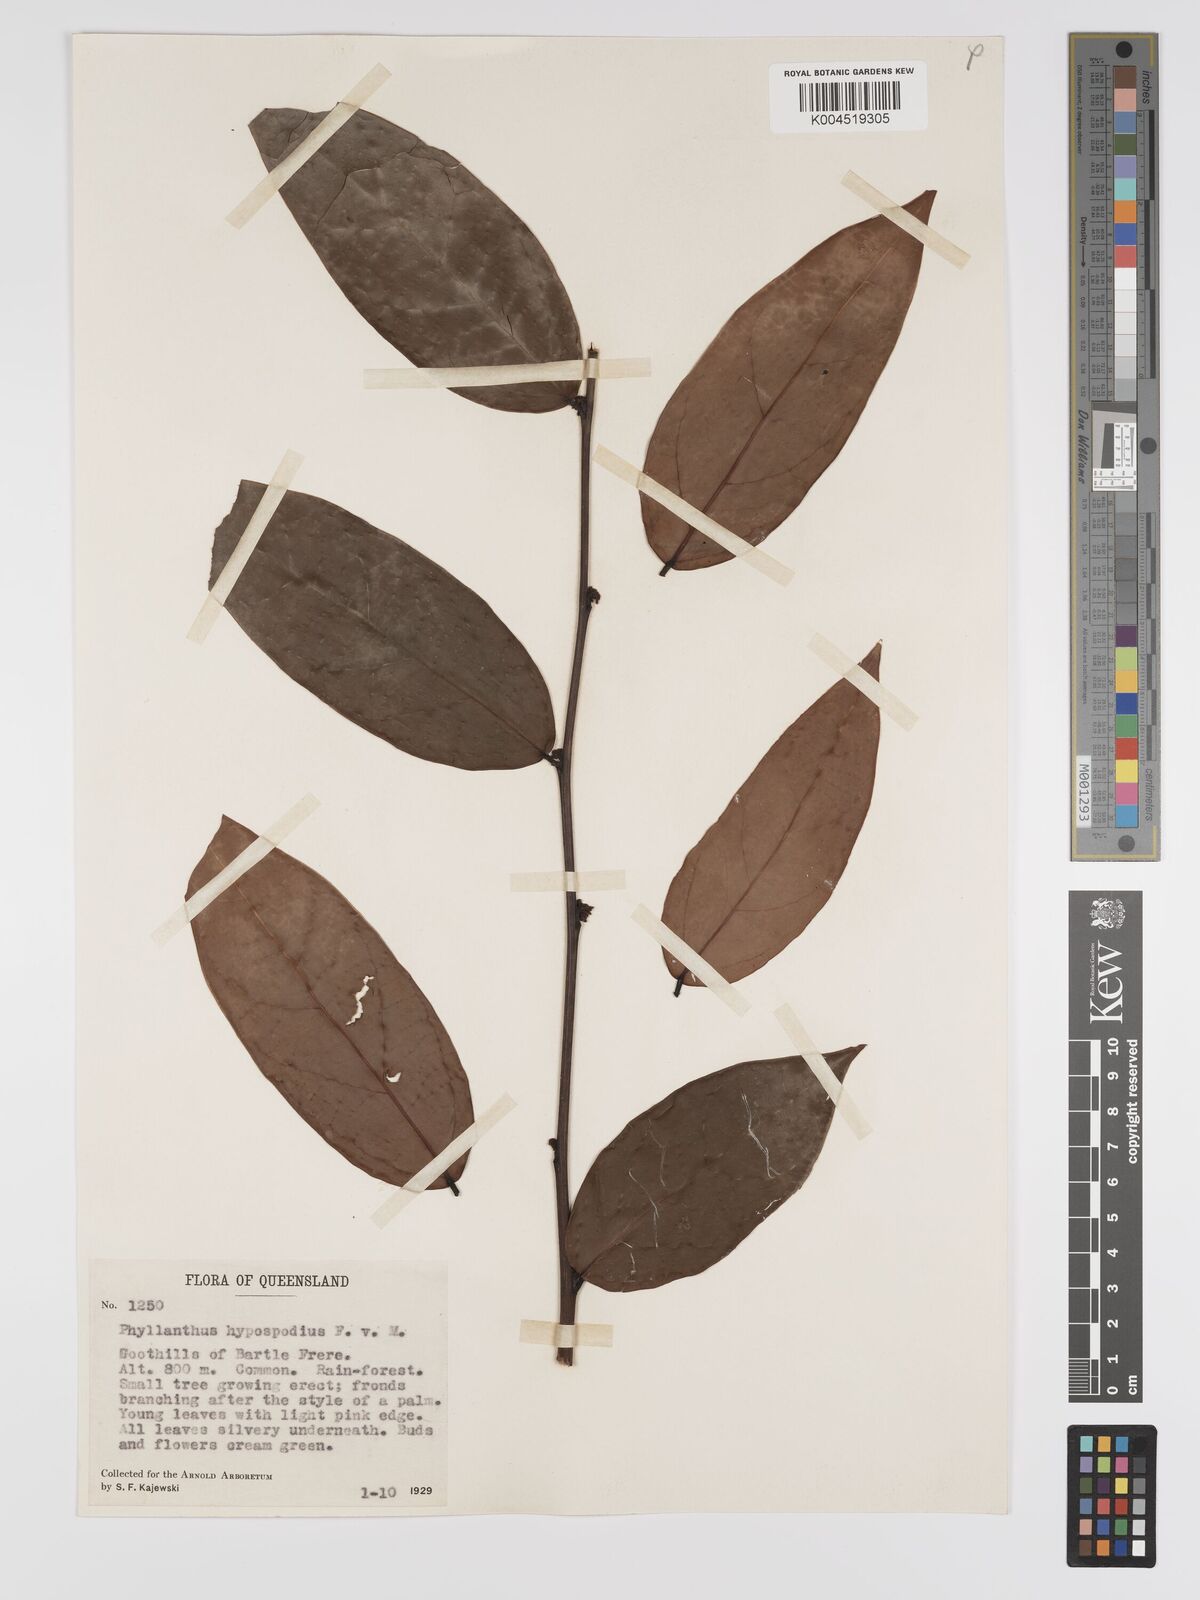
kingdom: Plantae
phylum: Tracheophyta
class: Magnoliopsida
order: Malpighiales
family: Phyllanthaceae
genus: Phyllanthus
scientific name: Phyllanthus hypospodius
